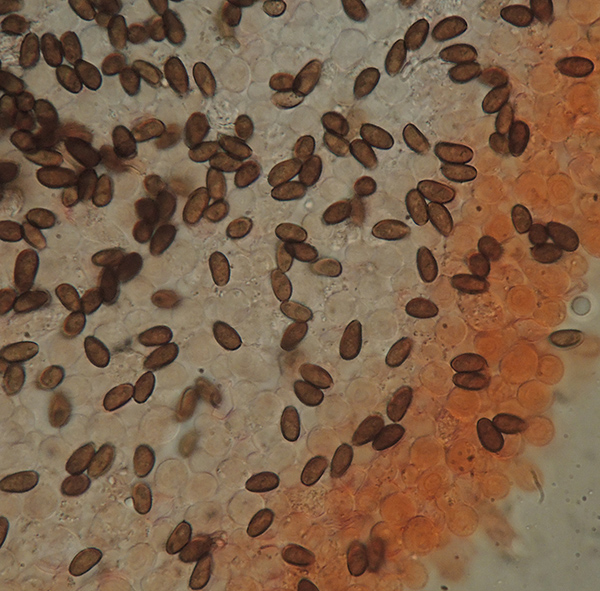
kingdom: Fungi
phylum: Basidiomycota
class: Agaricomycetes
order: Agaricales
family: Psathyrellaceae
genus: Psathyrella
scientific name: Psathyrella impexa
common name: rødmende mørkhat
